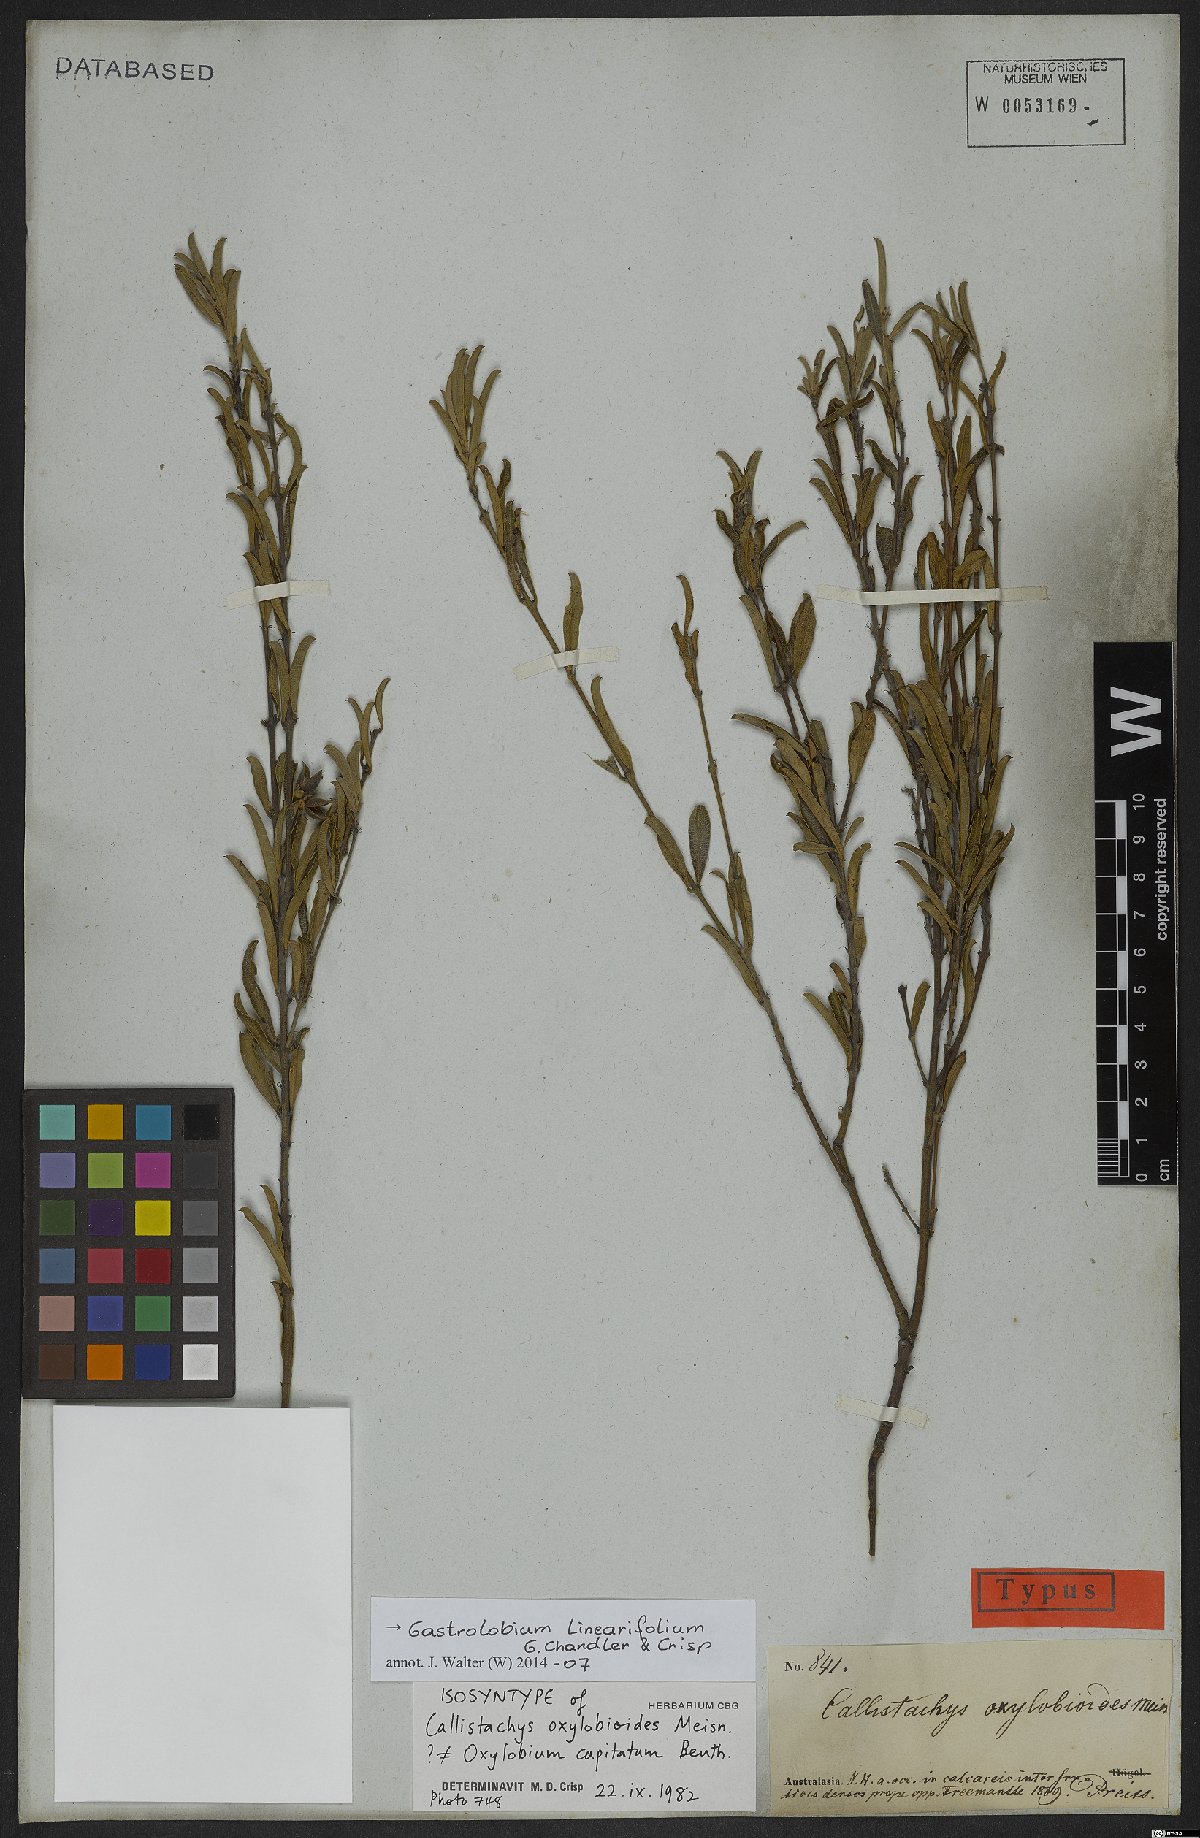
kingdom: Plantae
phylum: Tracheophyta
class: Magnoliopsida
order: Fabales
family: Fabaceae
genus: Gastrolobium
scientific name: Gastrolobium linearifolium
